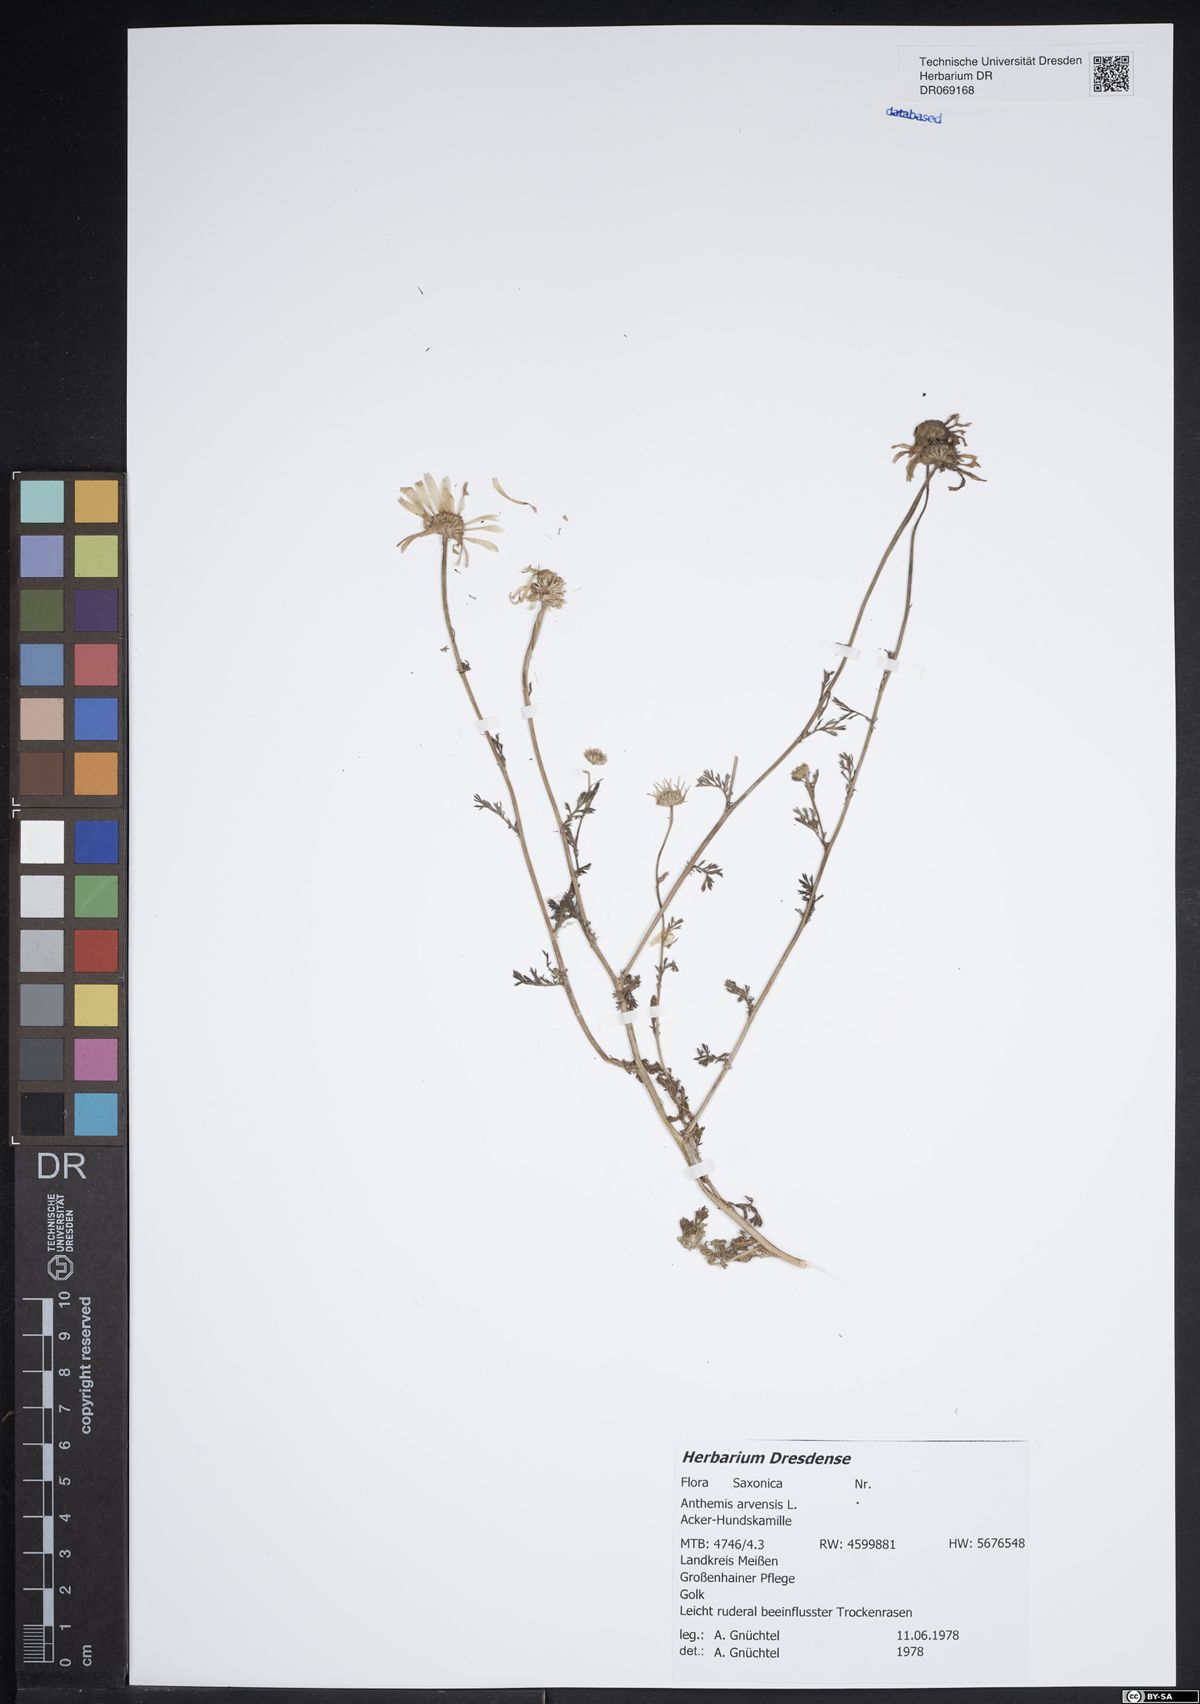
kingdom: Plantae
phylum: Tracheophyta
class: Magnoliopsida
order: Asterales
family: Asteraceae
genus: Anthemis
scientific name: Anthemis arvensis
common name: Corn chamomile
